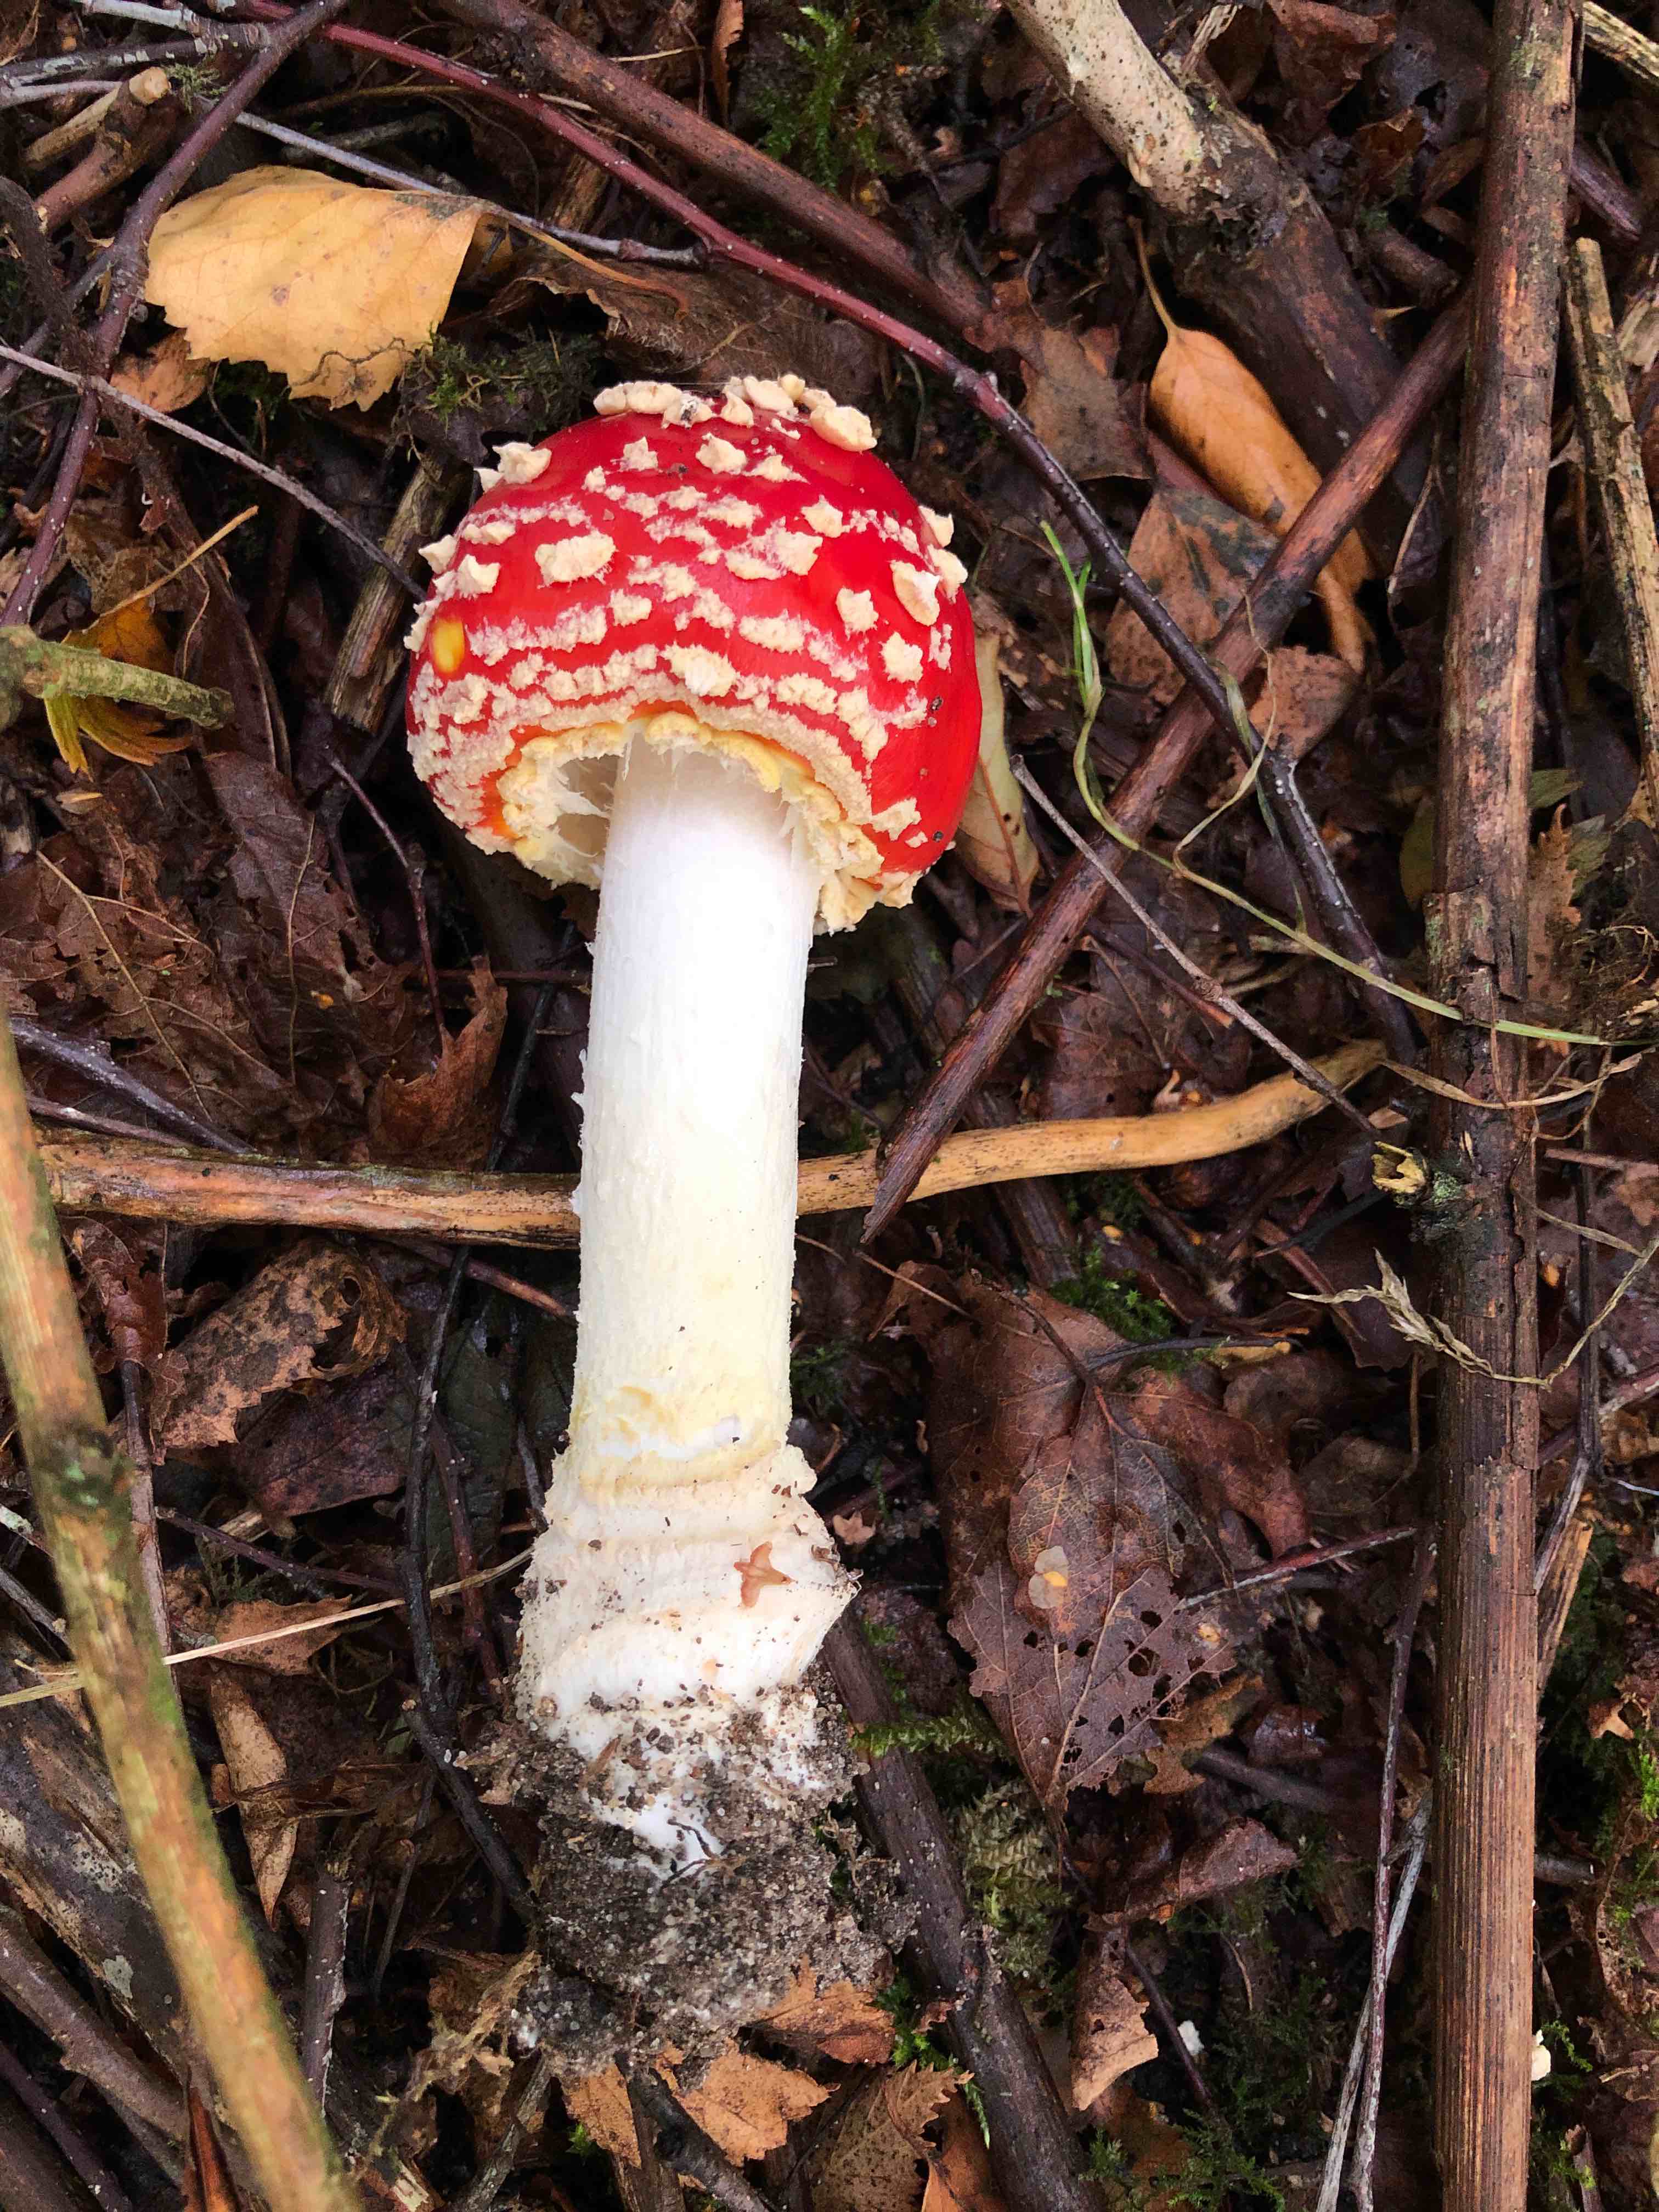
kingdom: Fungi
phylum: Basidiomycota
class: Agaricomycetes
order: Agaricales
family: Amanitaceae
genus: Amanita
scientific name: Amanita muscaria
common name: rød fluesvamp
